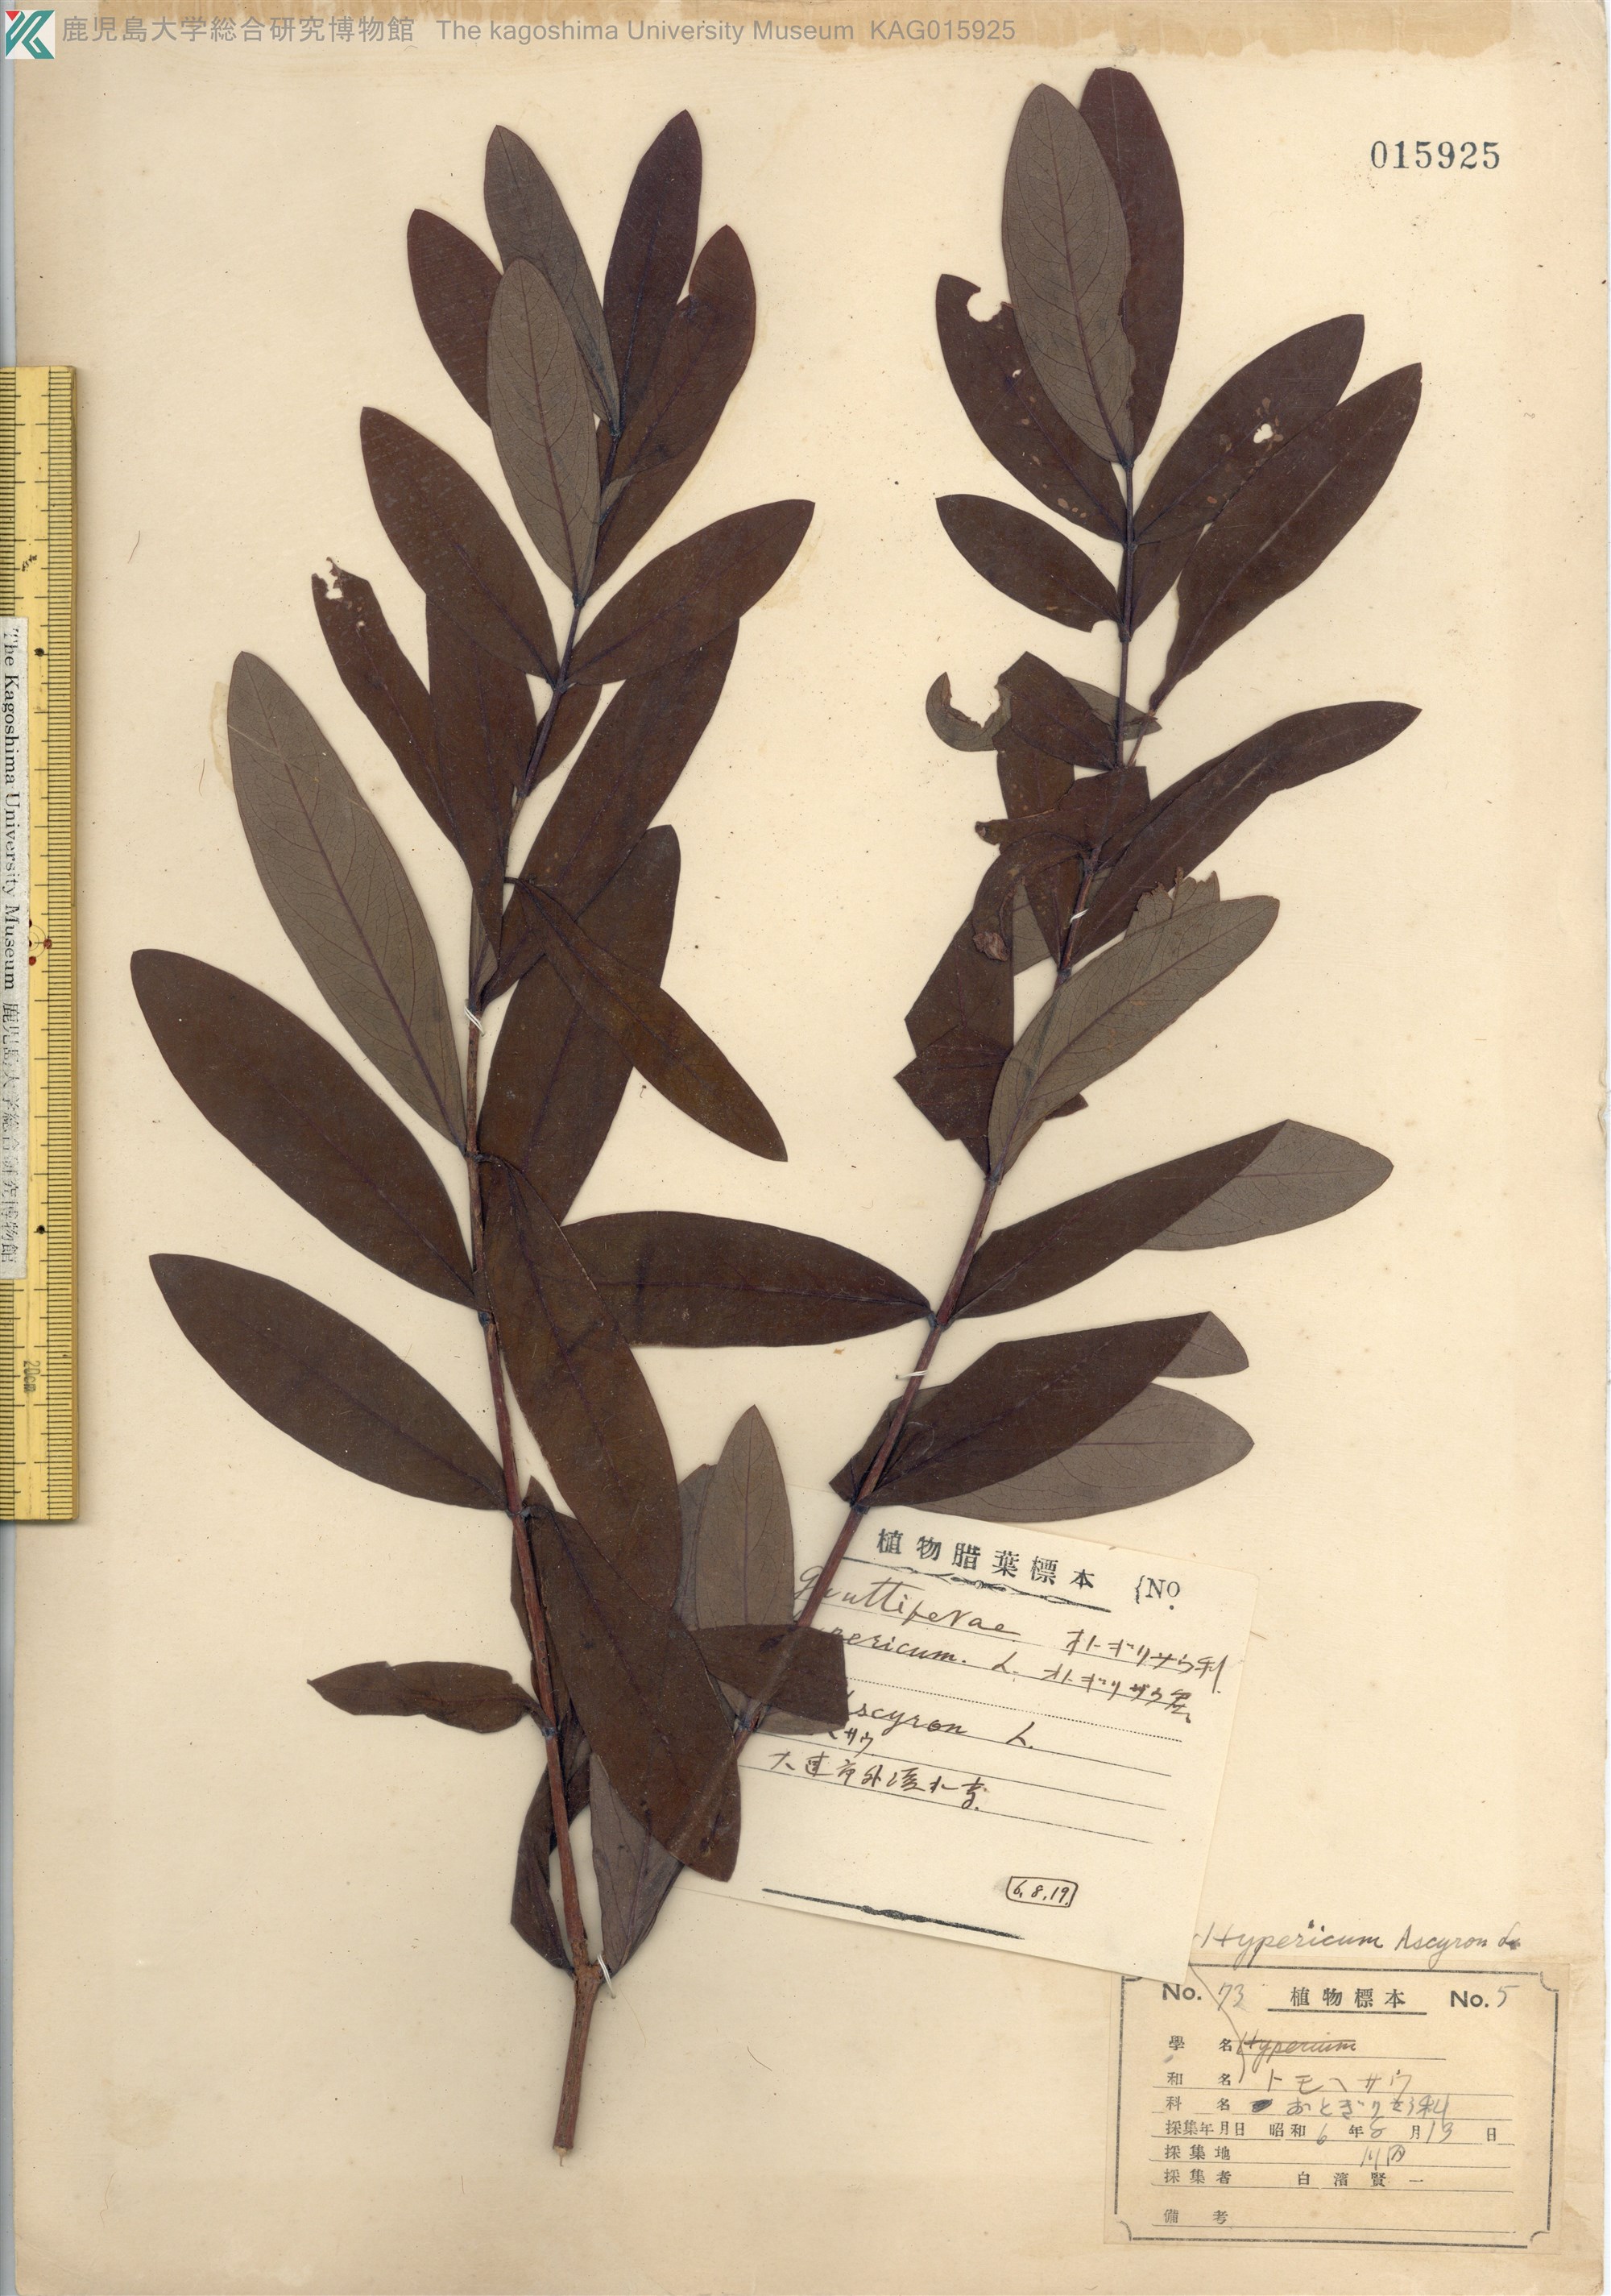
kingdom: Plantae
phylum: Tracheophyta
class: Magnoliopsida
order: Malpighiales
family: Hypericaceae
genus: Hypericum
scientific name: Hypericum monogynum
